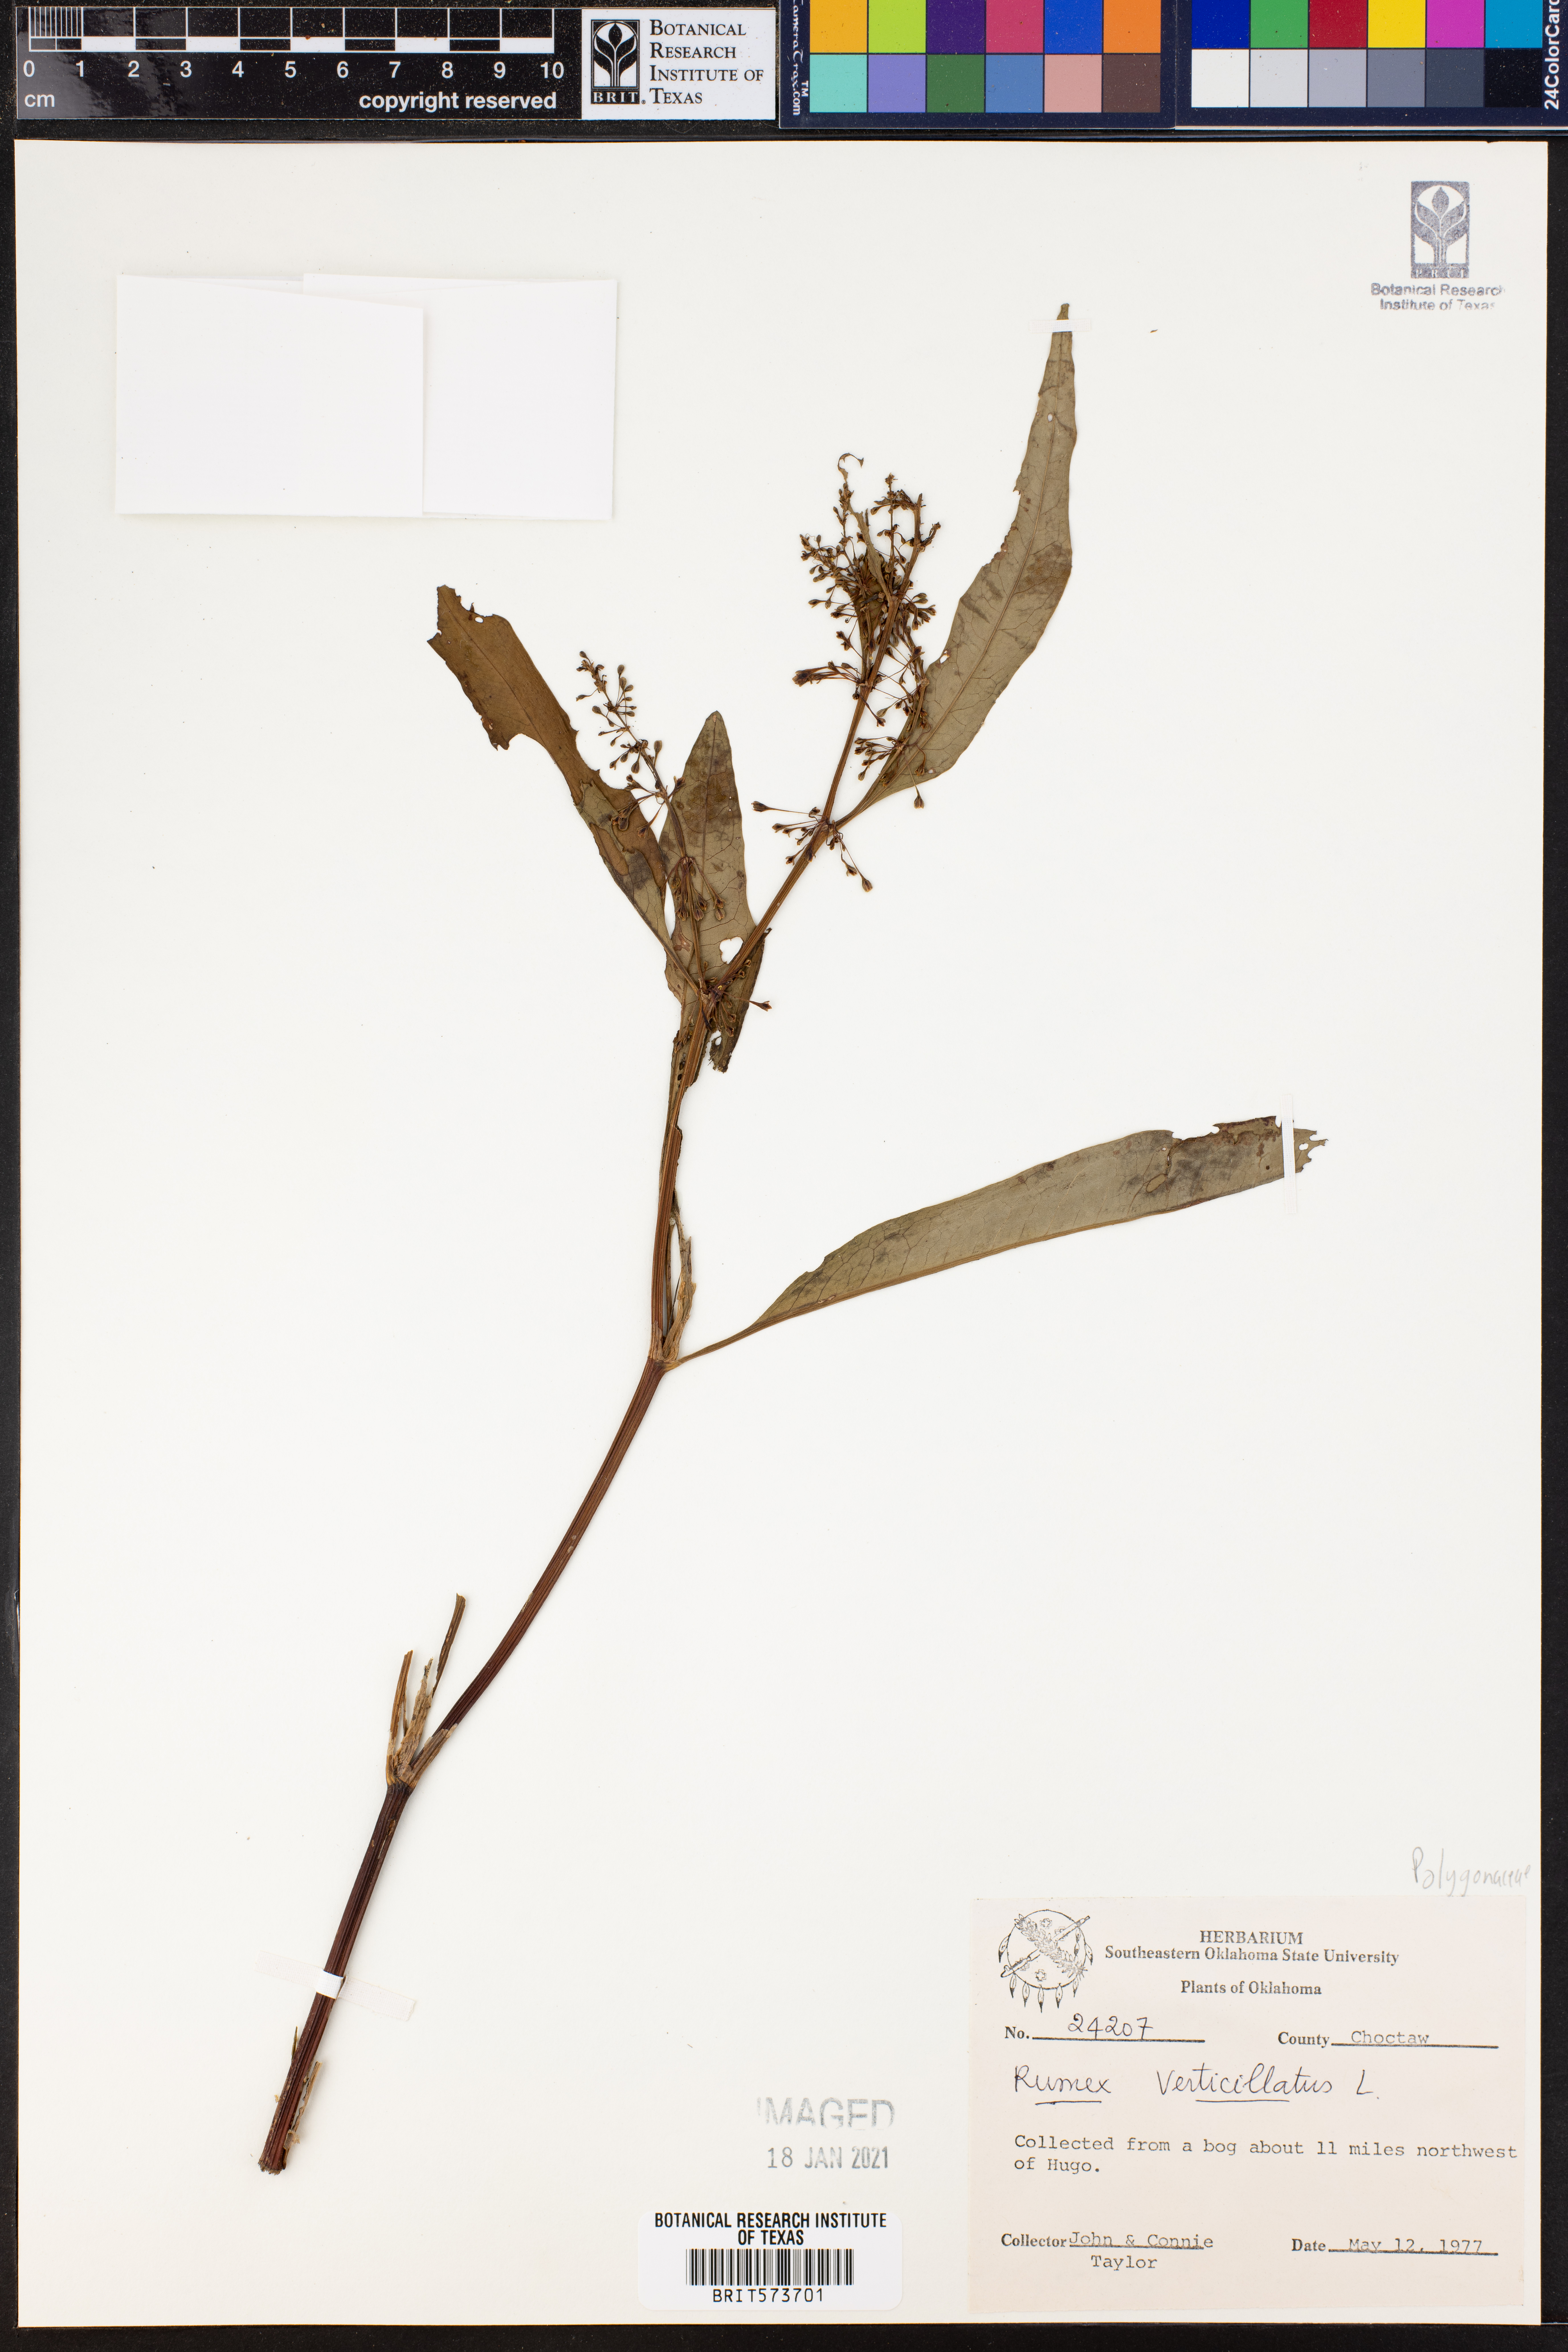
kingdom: Plantae
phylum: Tracheophyta
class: Magnoliopsida
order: Caryophyllales
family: Polygonaceae
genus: Rumex
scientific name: Rumex verticillatus
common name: Swamp dock
